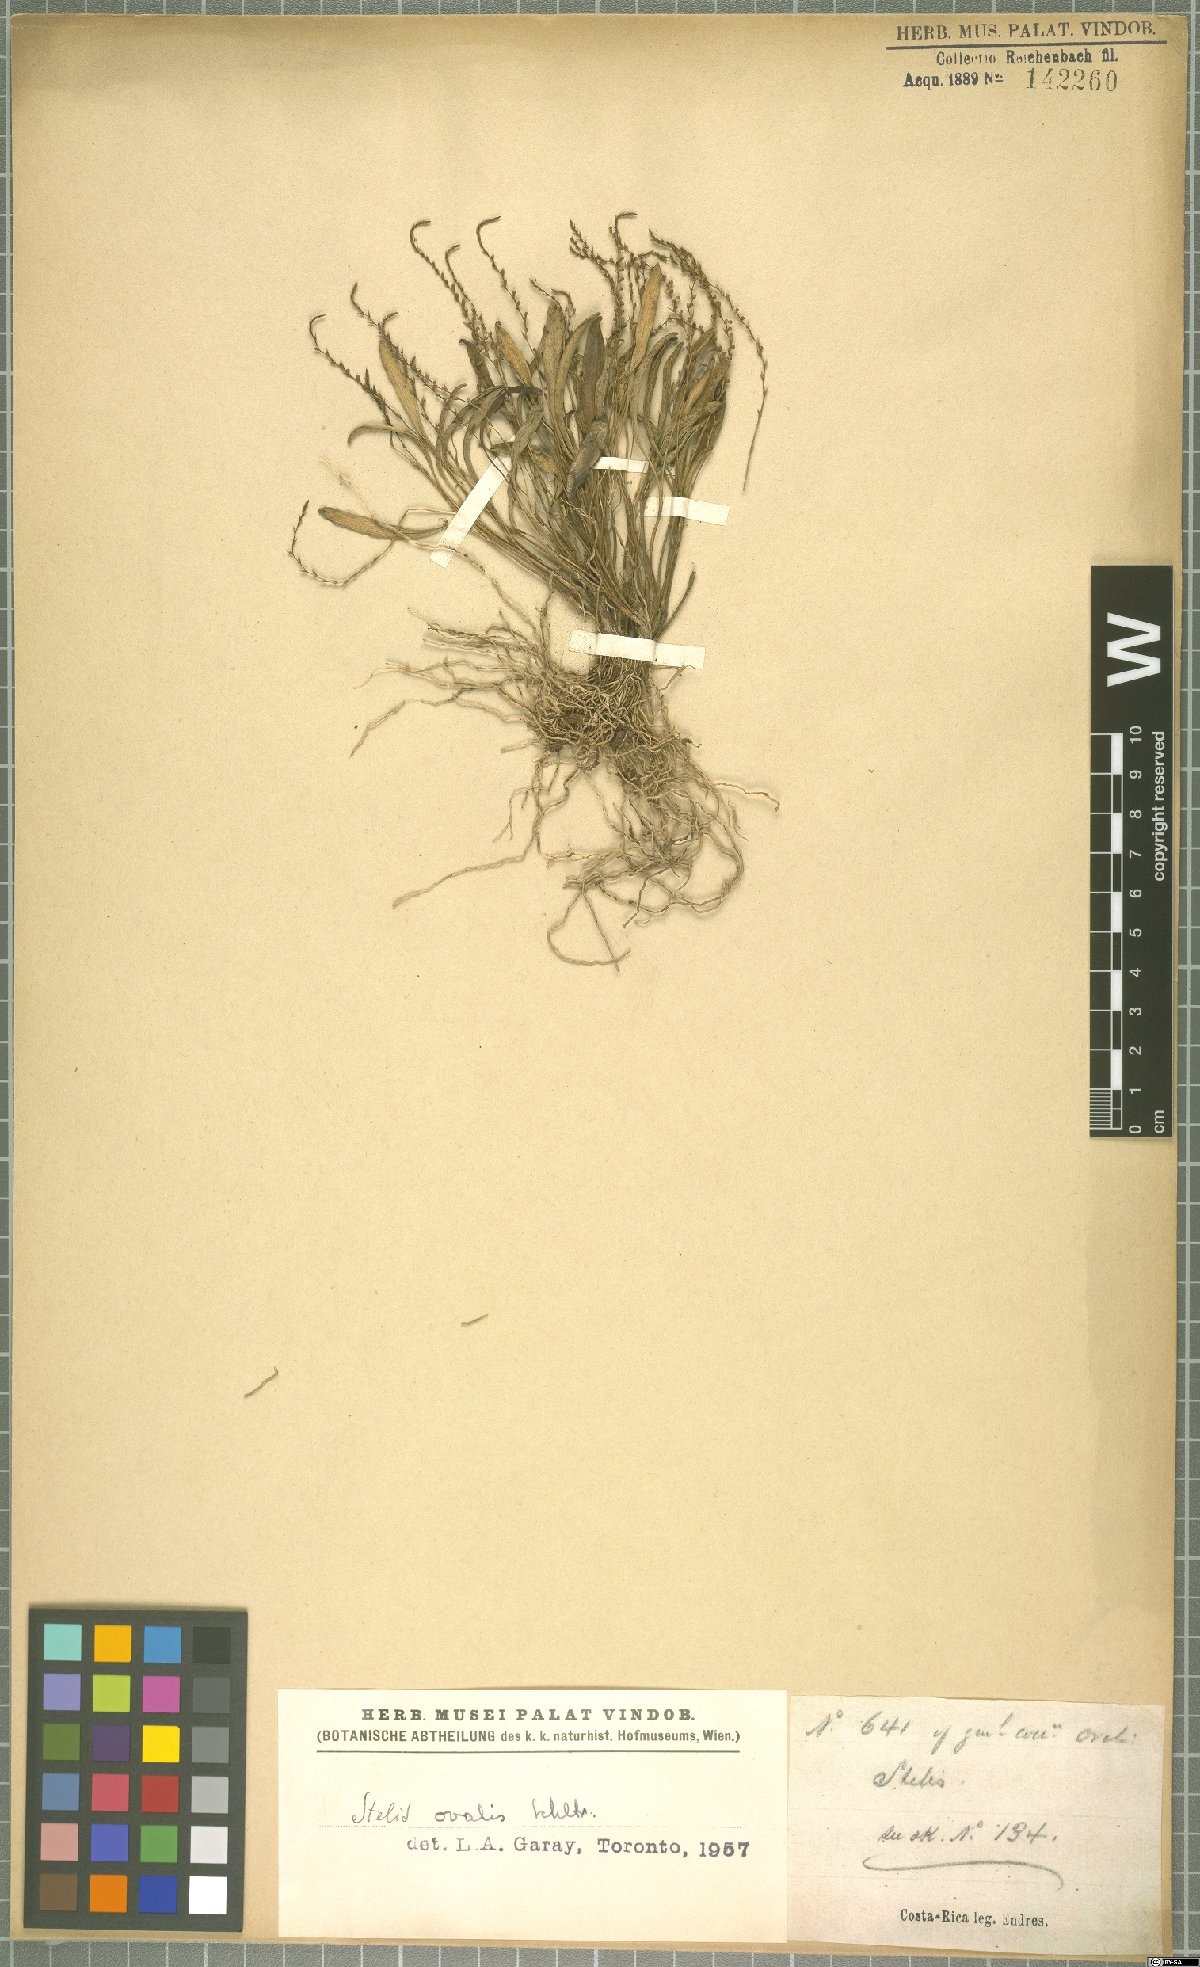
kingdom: Plantae
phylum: Tracheophyta
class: Liliopsida
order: Asparagales
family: Orchidaceae
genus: Stelis
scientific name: Stelis
